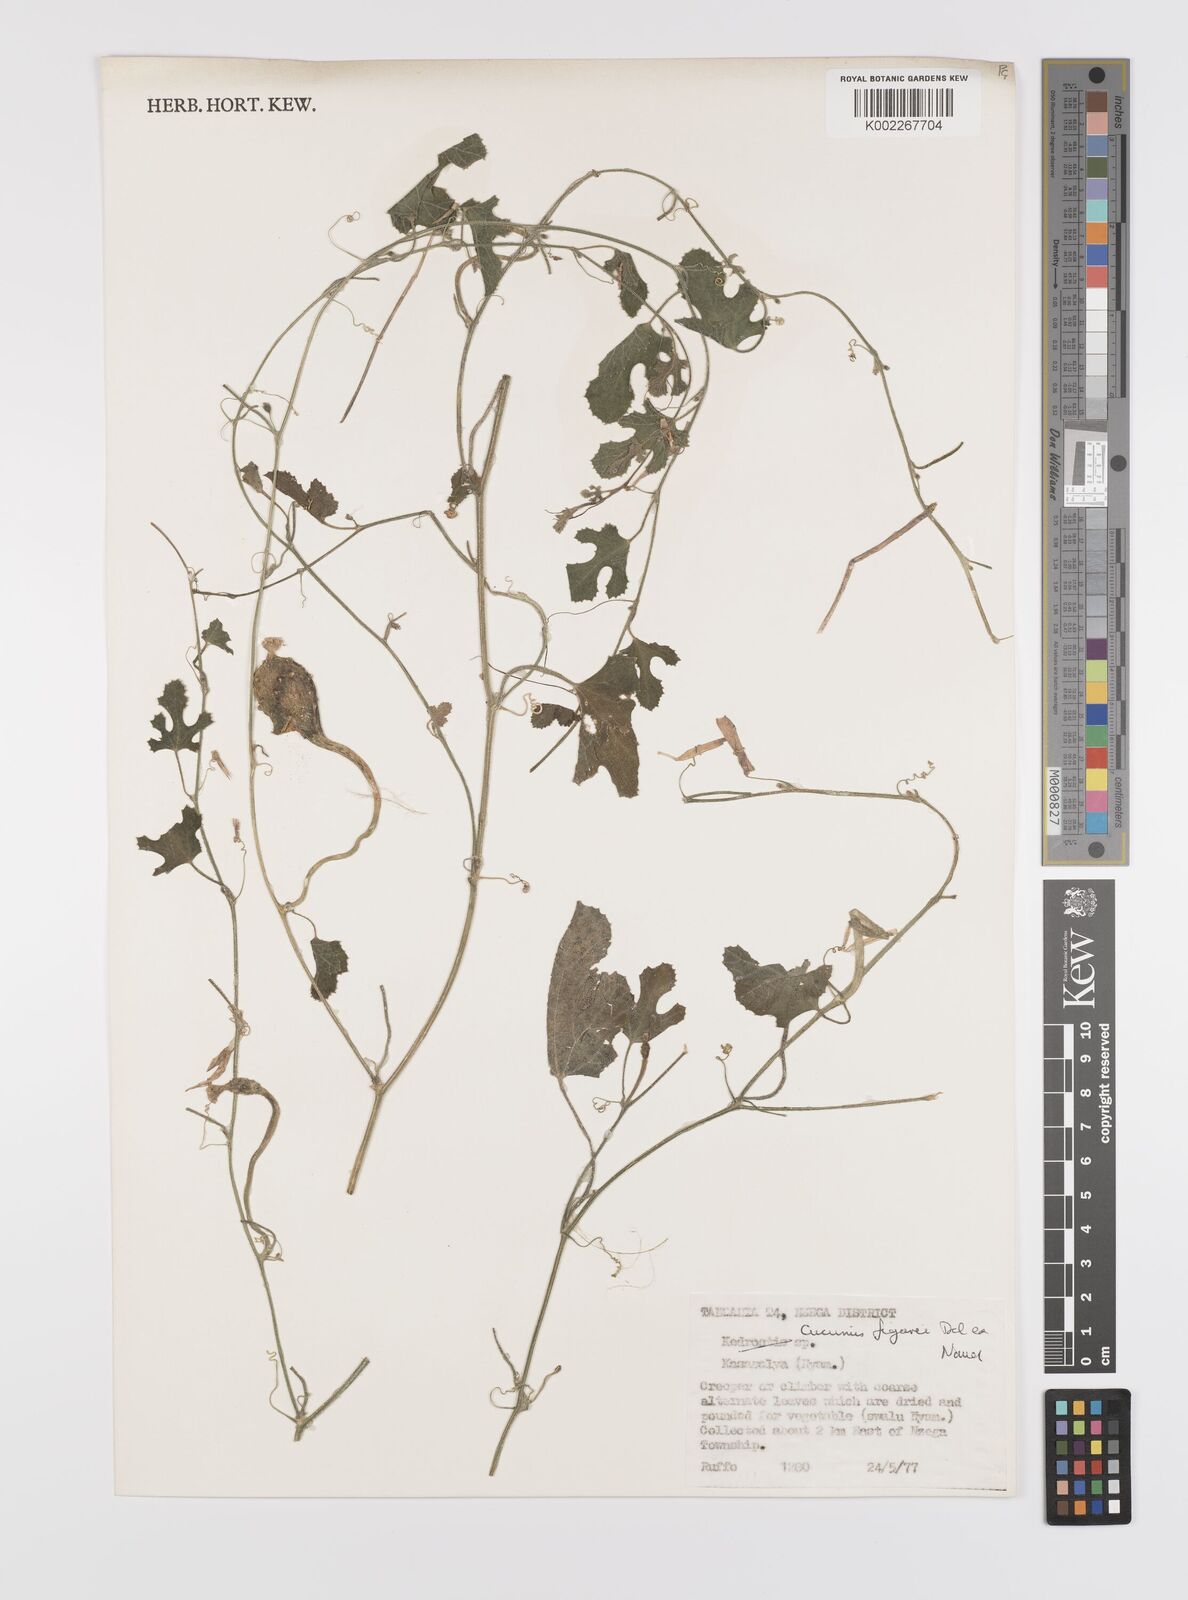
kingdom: Plantae
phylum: Tracheophyta
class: Magnoliopsida
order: Cucurbitales
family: Cucurbitaceae
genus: Cucumis
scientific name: Cucumis pustulatus
